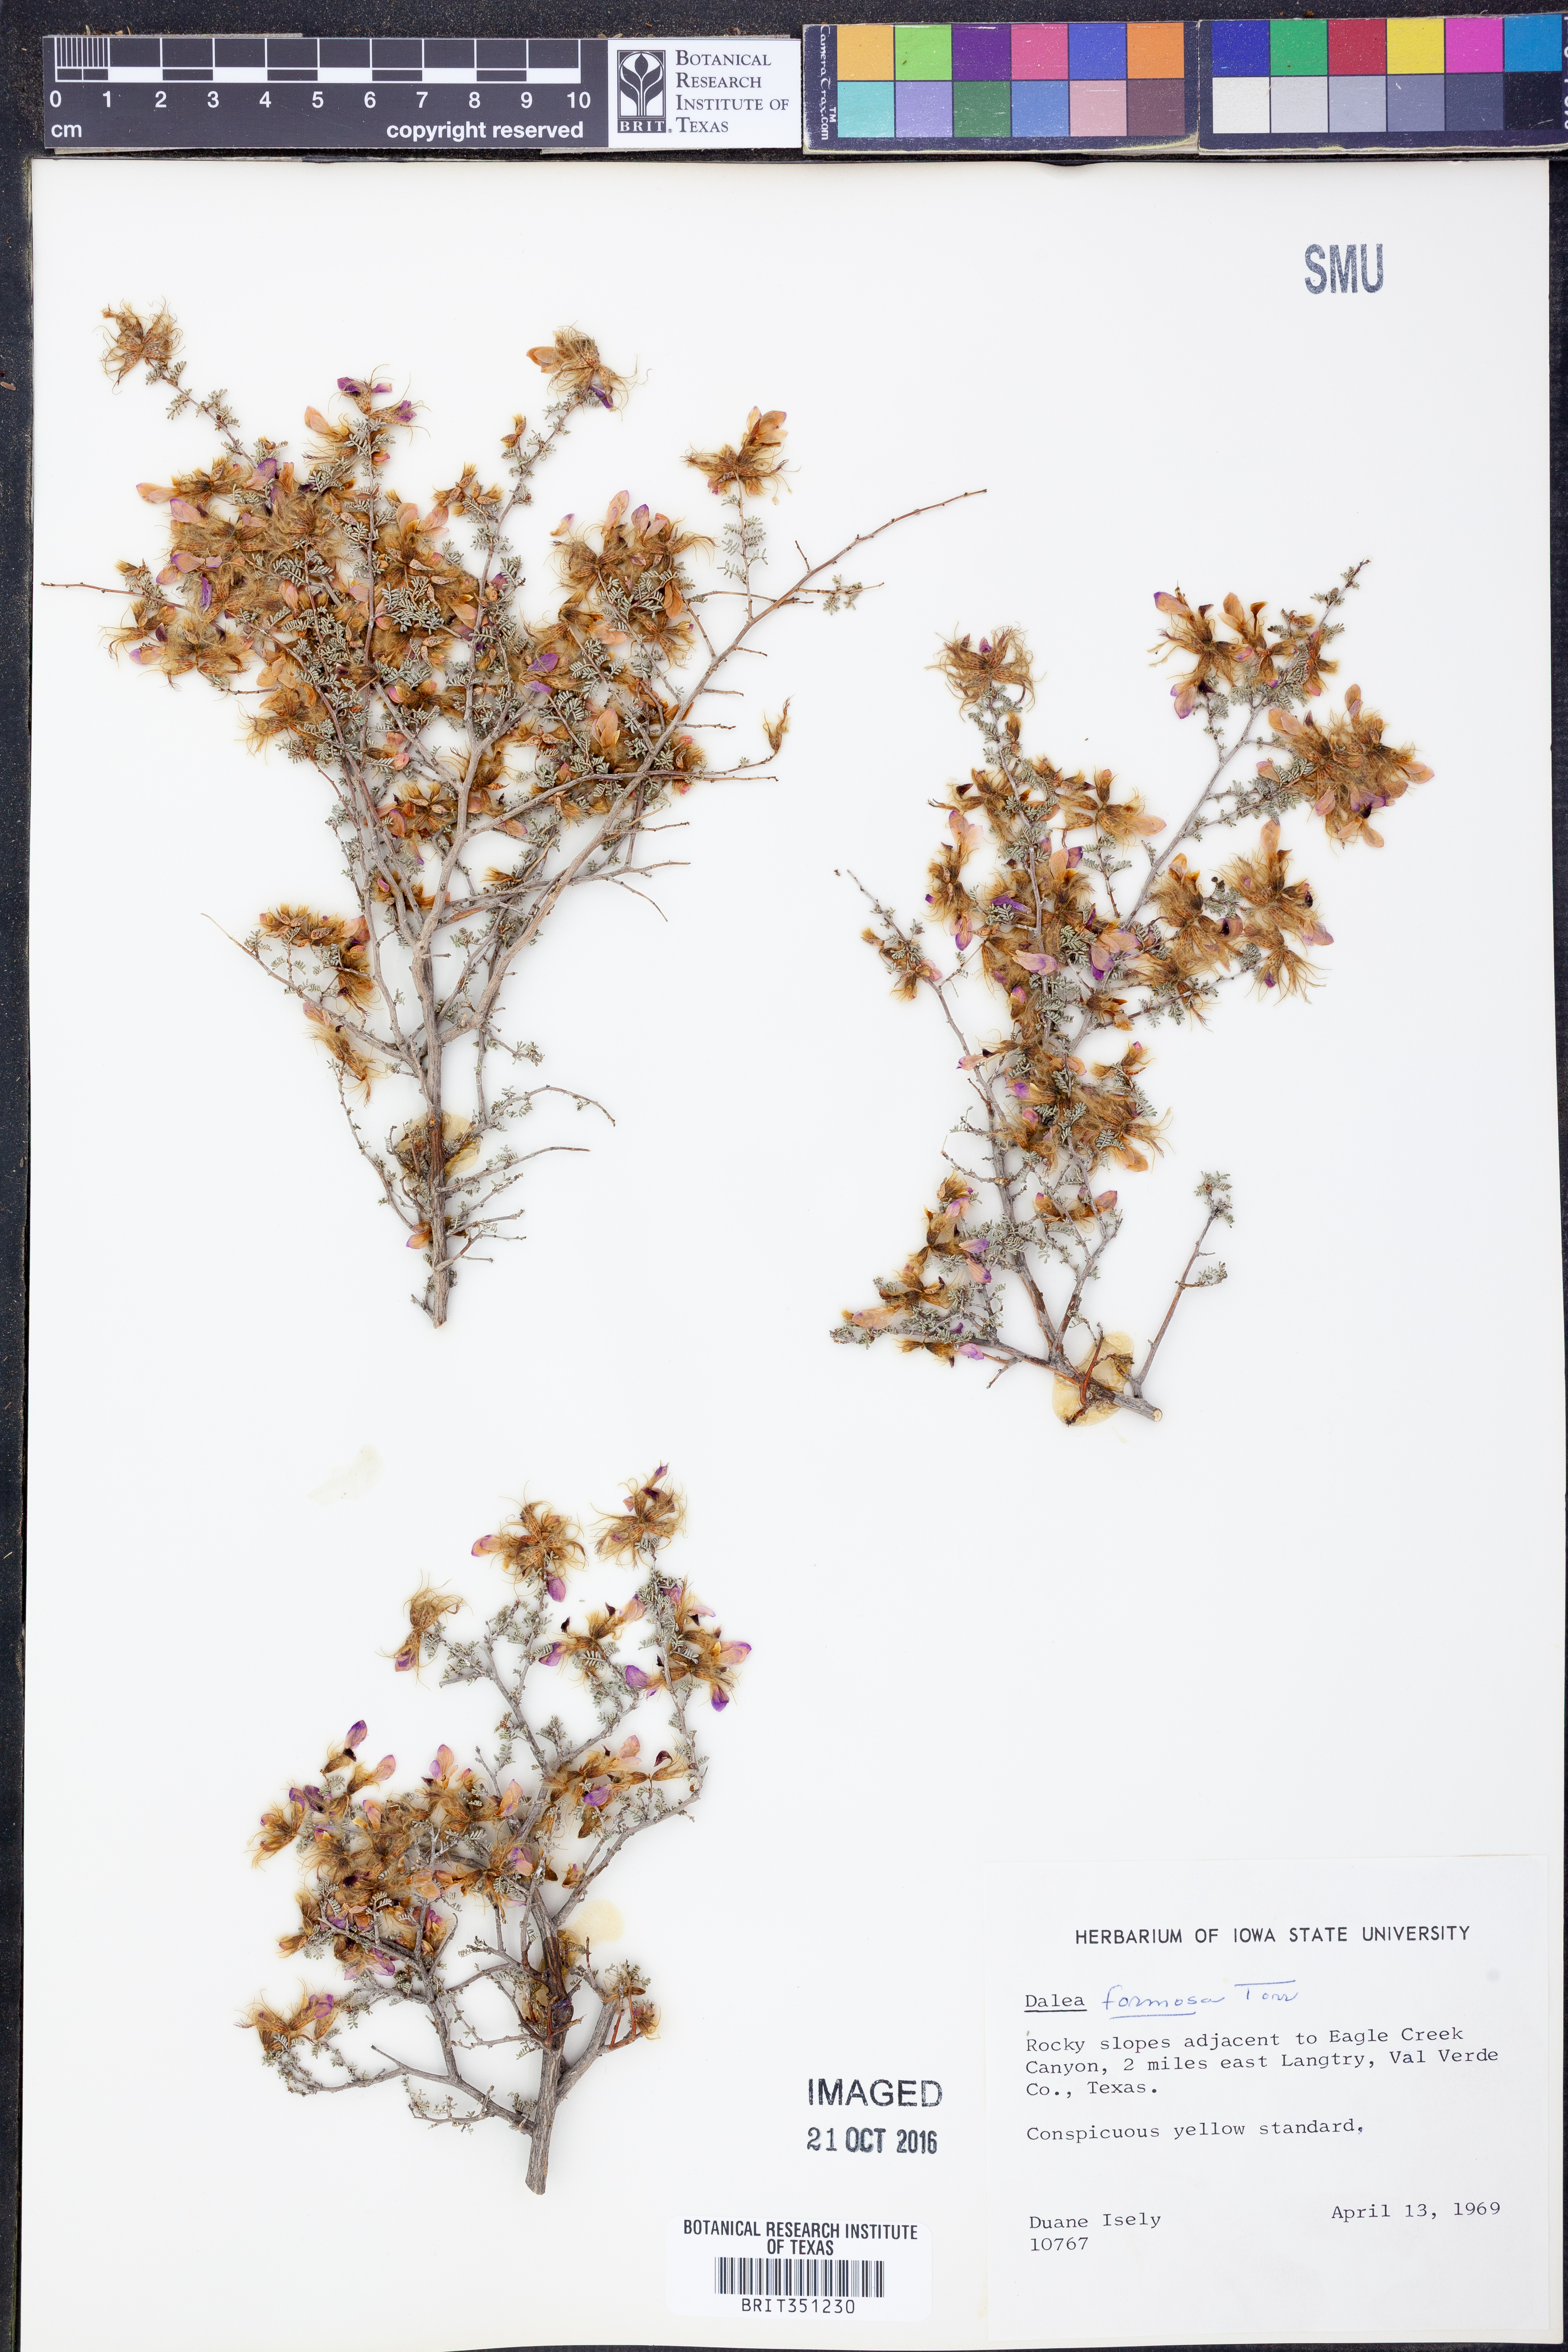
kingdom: Plantae
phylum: Tracheophyta
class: Magnoliopsida
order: Fabales
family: Fabaceae
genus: Dalea
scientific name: Dalea formosa
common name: Feather-plume dalea
